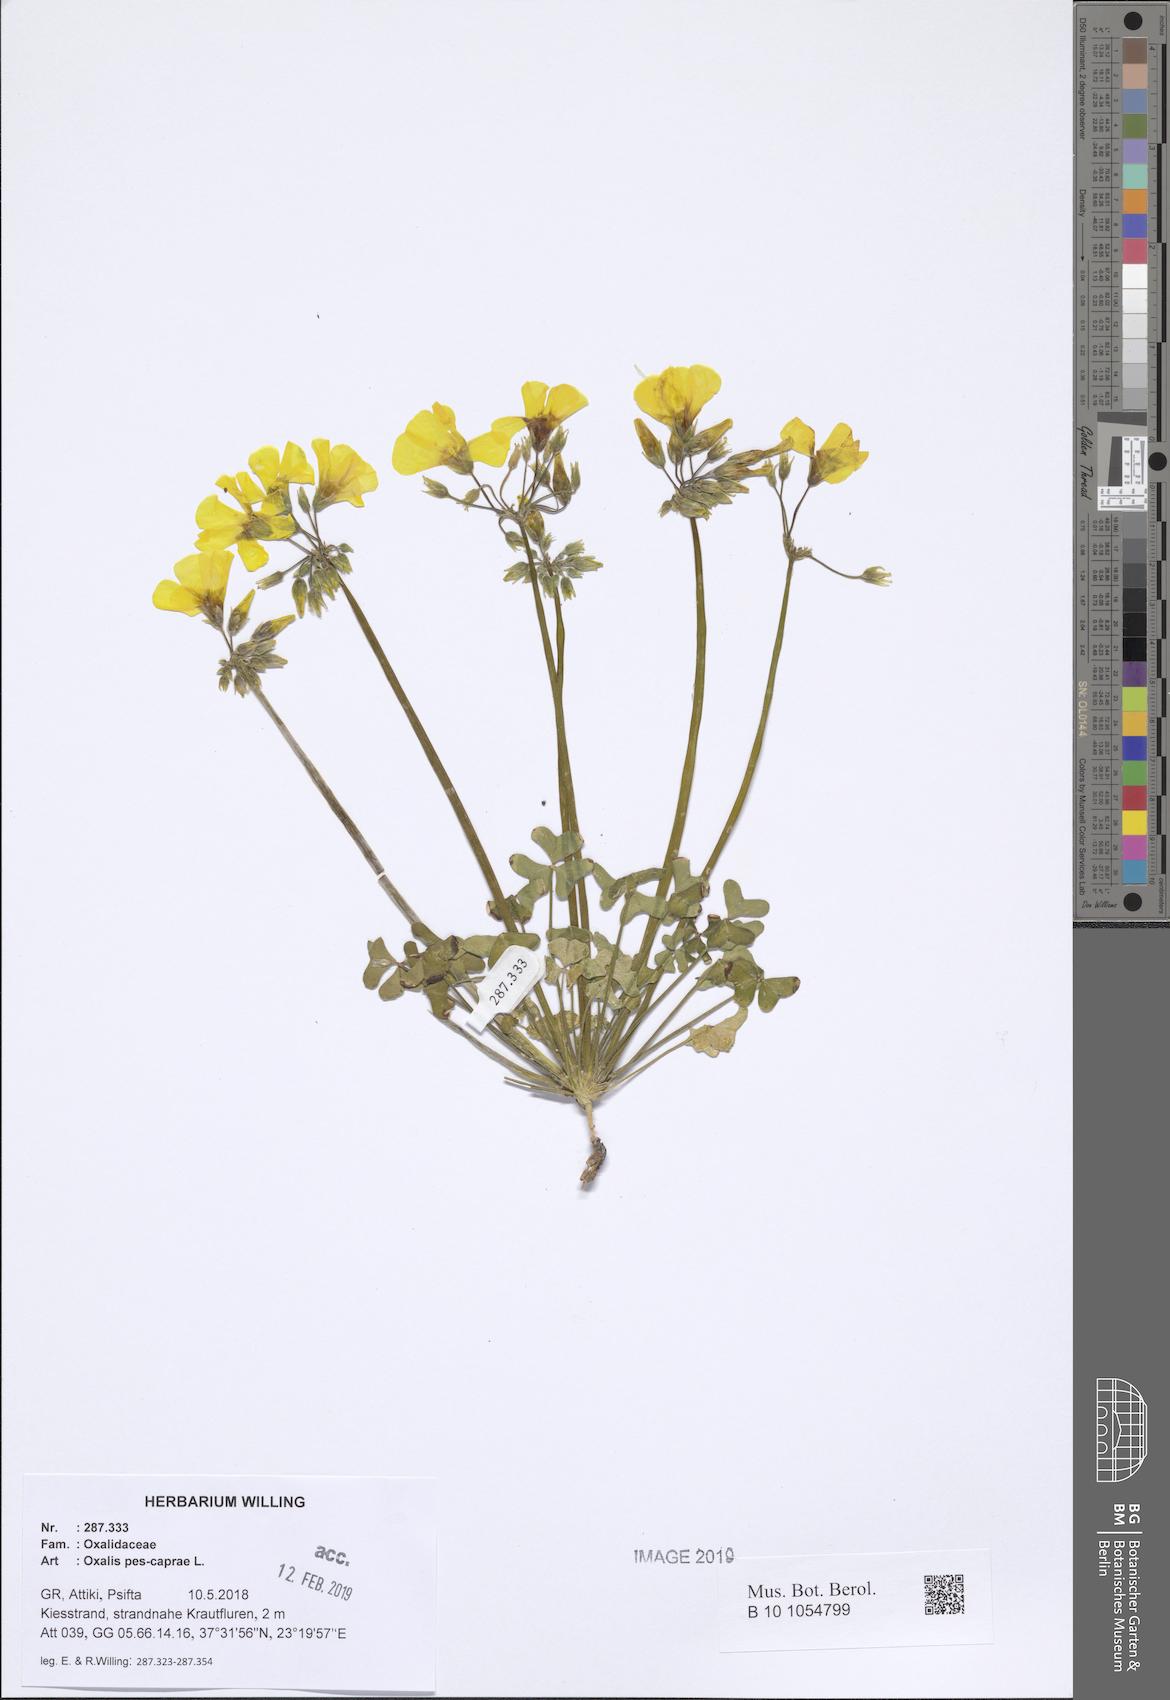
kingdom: Plantae
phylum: Tracheophyta
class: Magnoliopsida
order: Oxalidales
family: Oxalidaceae
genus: Oxalis
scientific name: Oxalis pes-caprae
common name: Bermuda-buttercup
